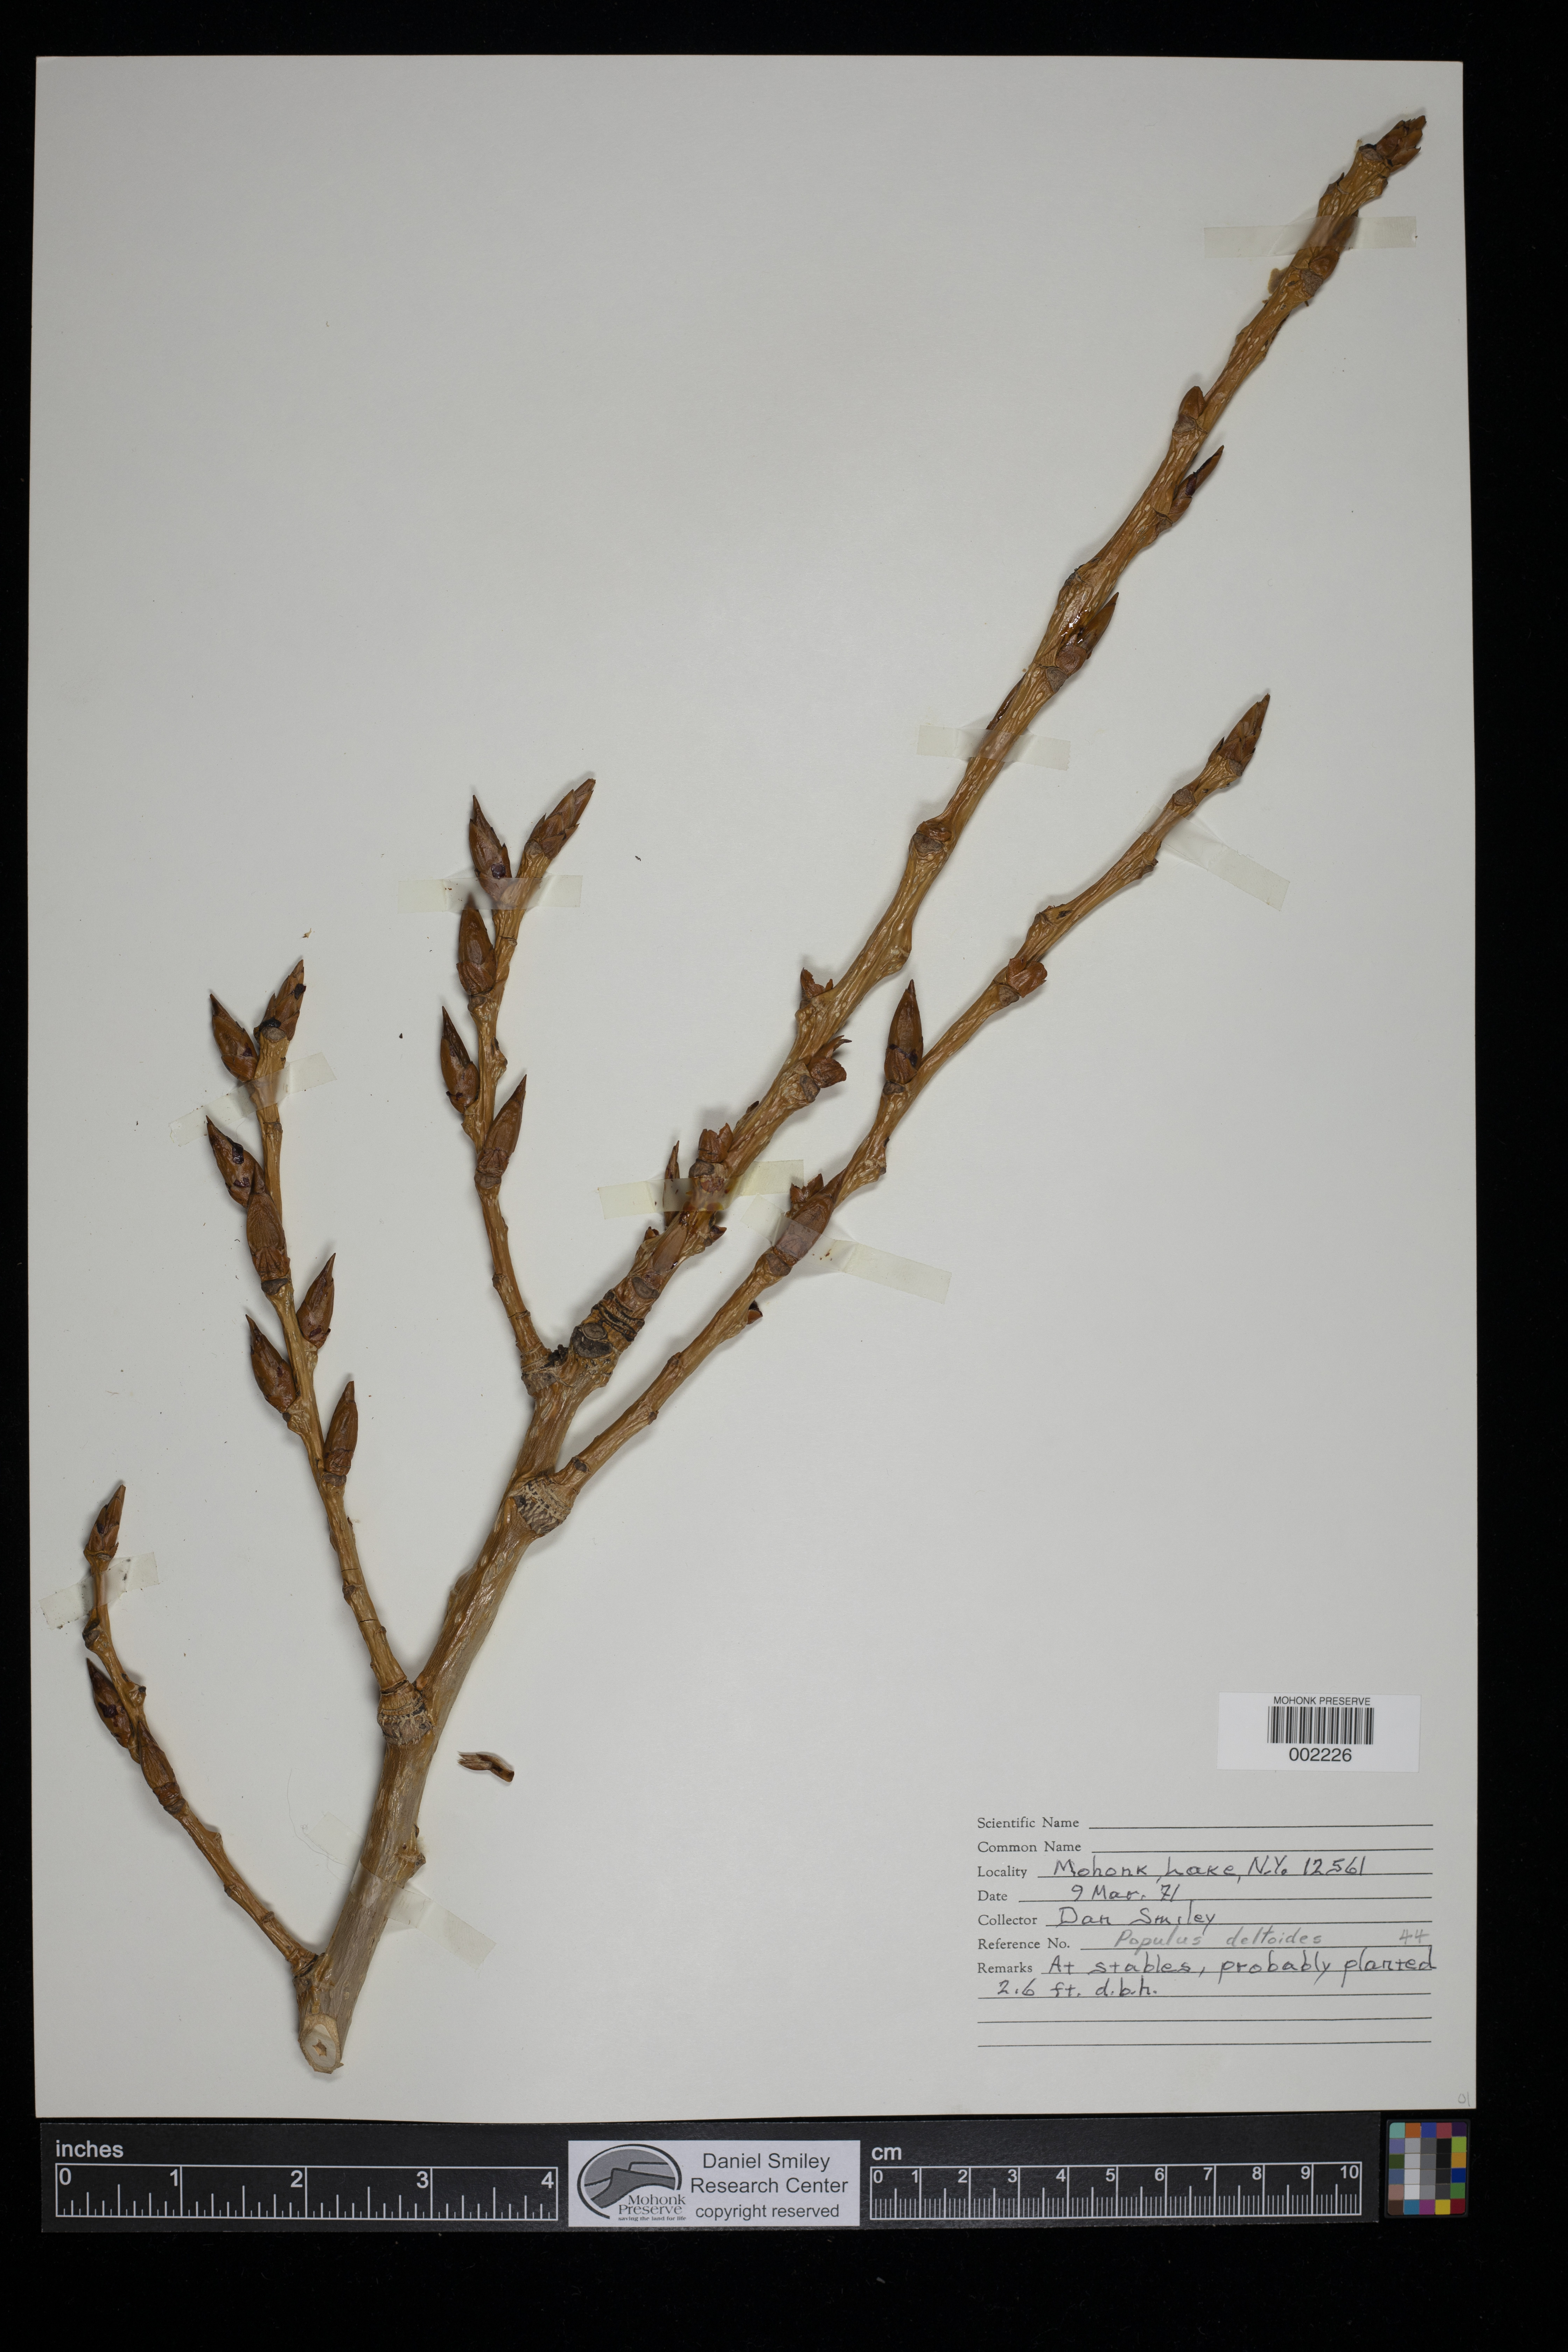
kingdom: Plantae
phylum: Tracheophyta
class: Magnoliopsida
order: Malpighiales
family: Salicaceae
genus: Populus
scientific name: Populus deltoides
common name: Eastern cottonwood
